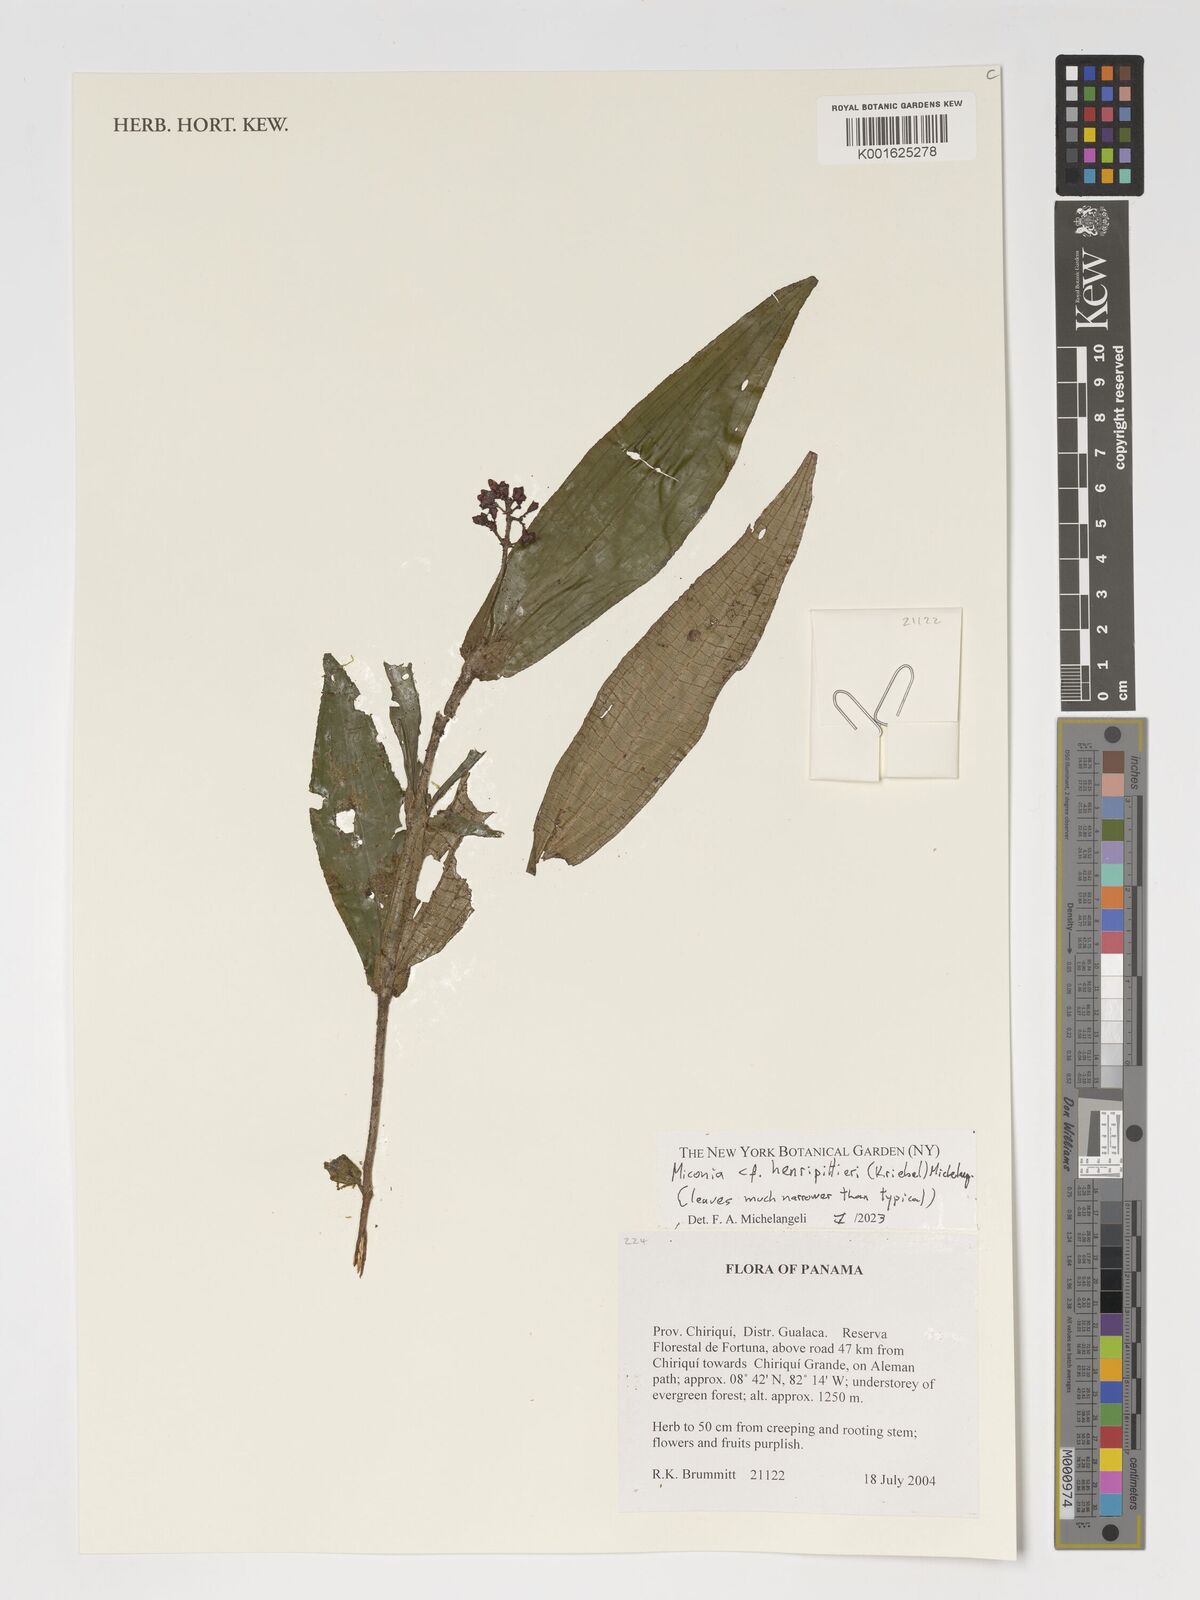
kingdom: Plantae
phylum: Tracheophyta
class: Magnoliopsida
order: Myrtales
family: Melastomataceae
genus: Miconia
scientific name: Miconia
